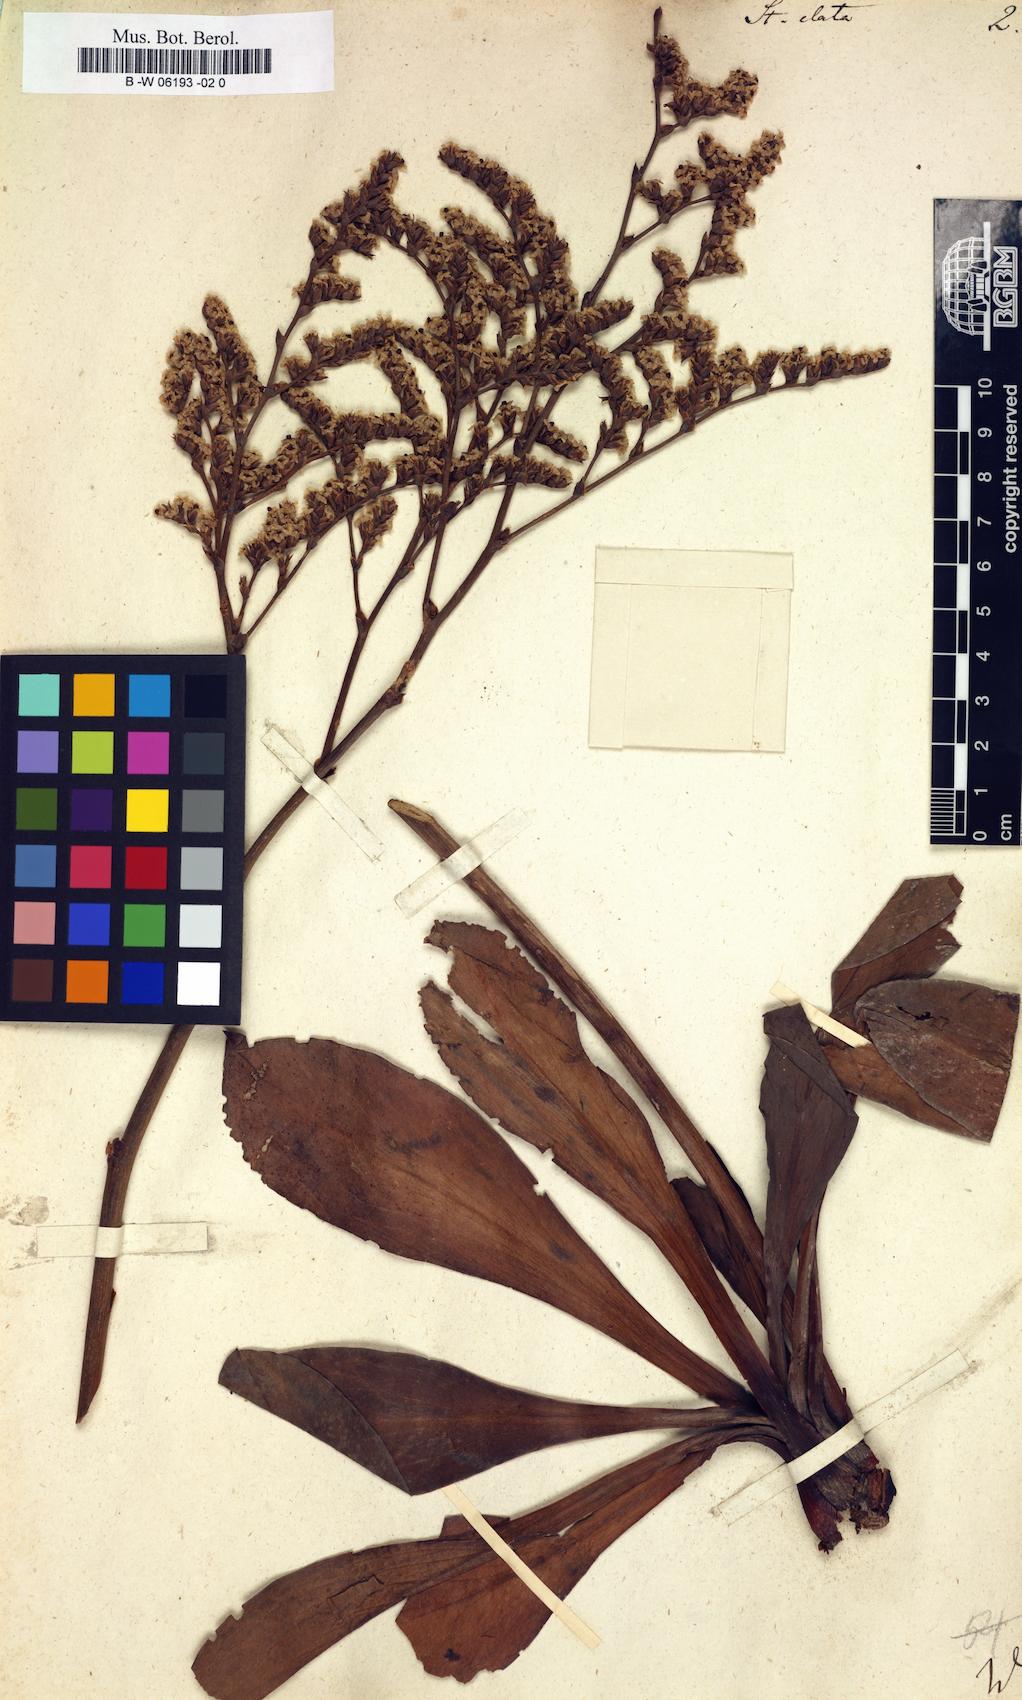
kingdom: Plantae
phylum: Tracheophyta
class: Magnoliopsida
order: Caryophyllales
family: Plumbaginaceae
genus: Goniolimon
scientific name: Goniolimon elatum
